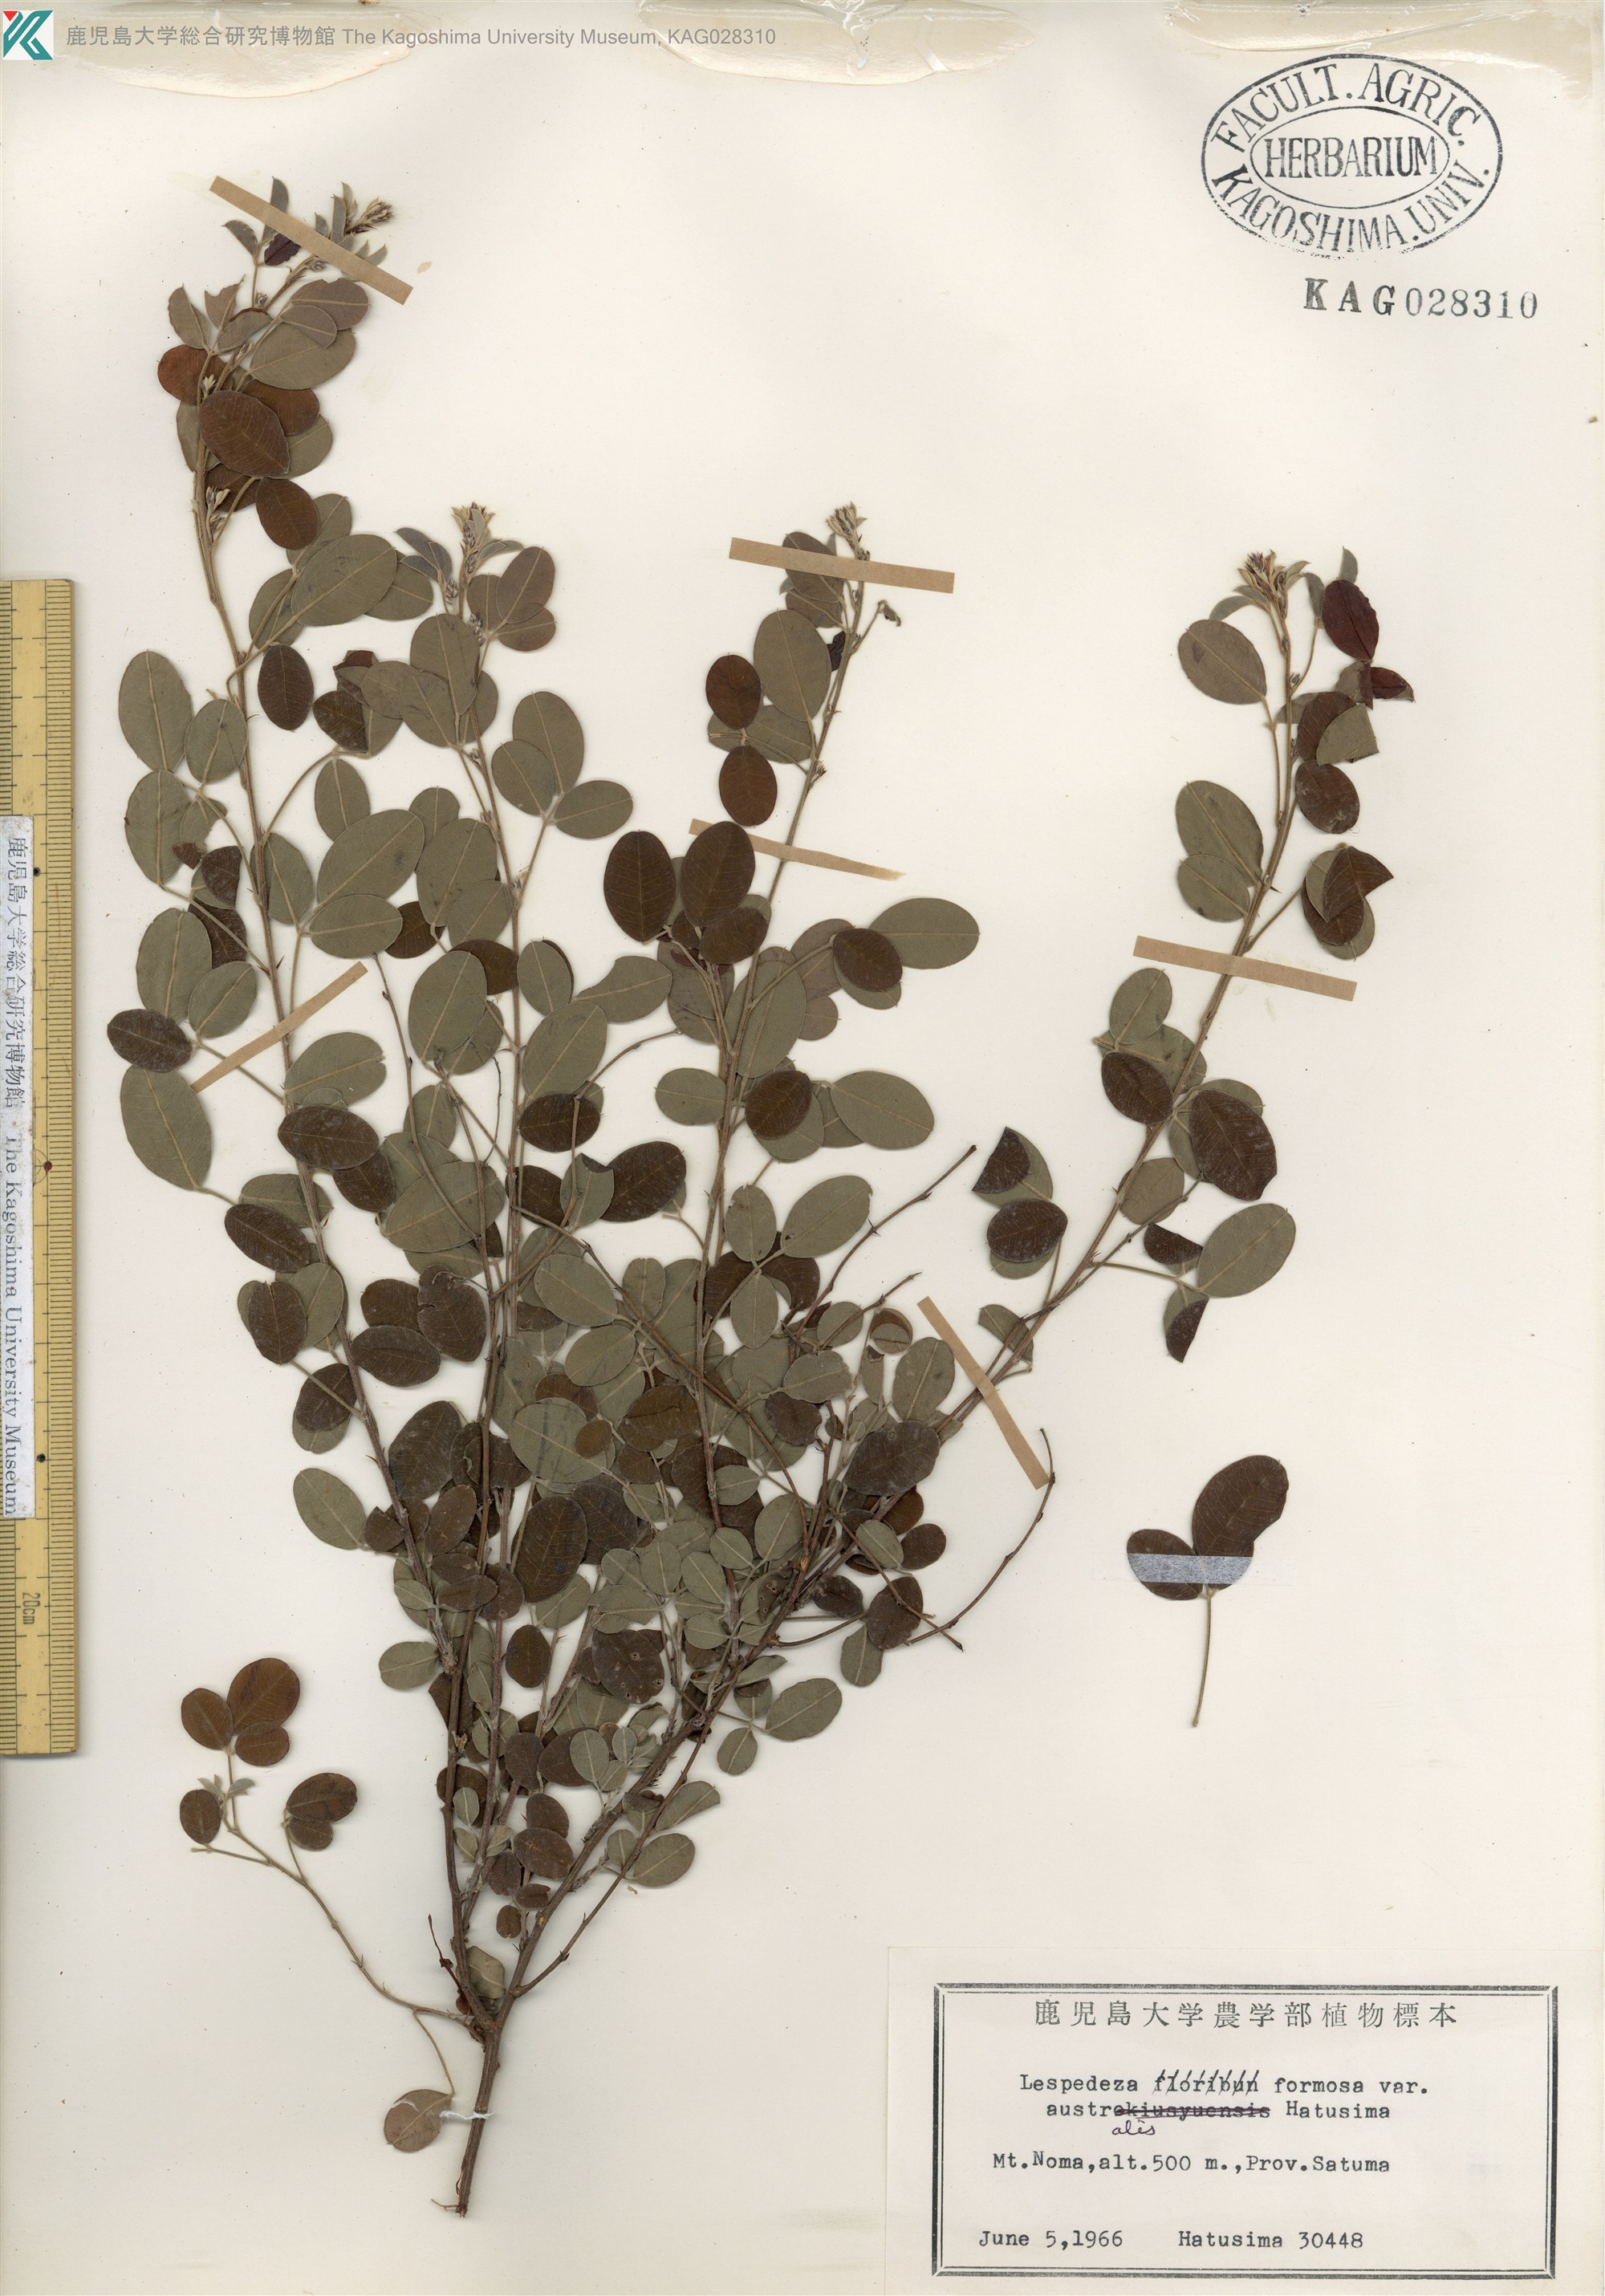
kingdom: Plantae
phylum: Tracheophyta
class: Magnoliopsida
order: Fabales
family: Fabaceae
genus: Lespedeza
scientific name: Lespedeza thunbergii
